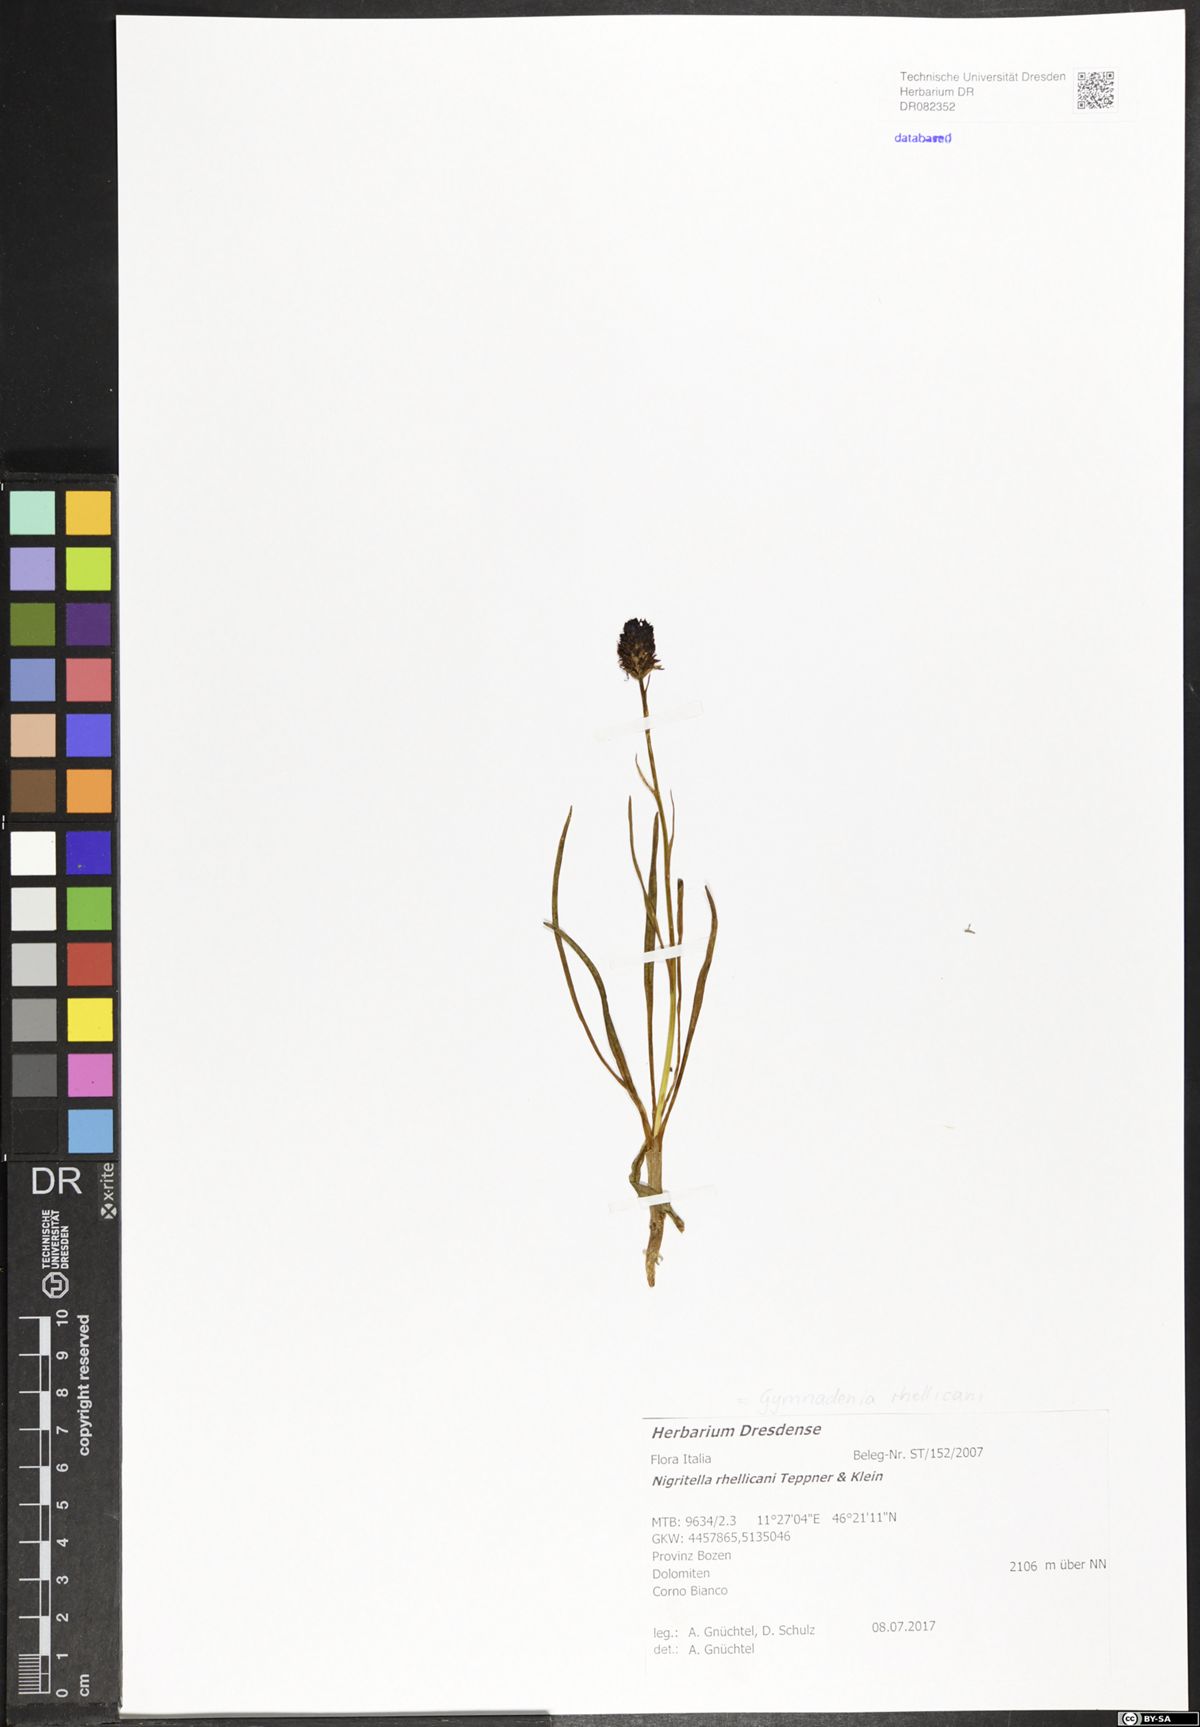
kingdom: Plantae
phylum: Tracheophyta
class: Liliopsida
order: Asparagales
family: Orchidaceae
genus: Gymnadenia
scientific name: Gymnadenia rhellicani
